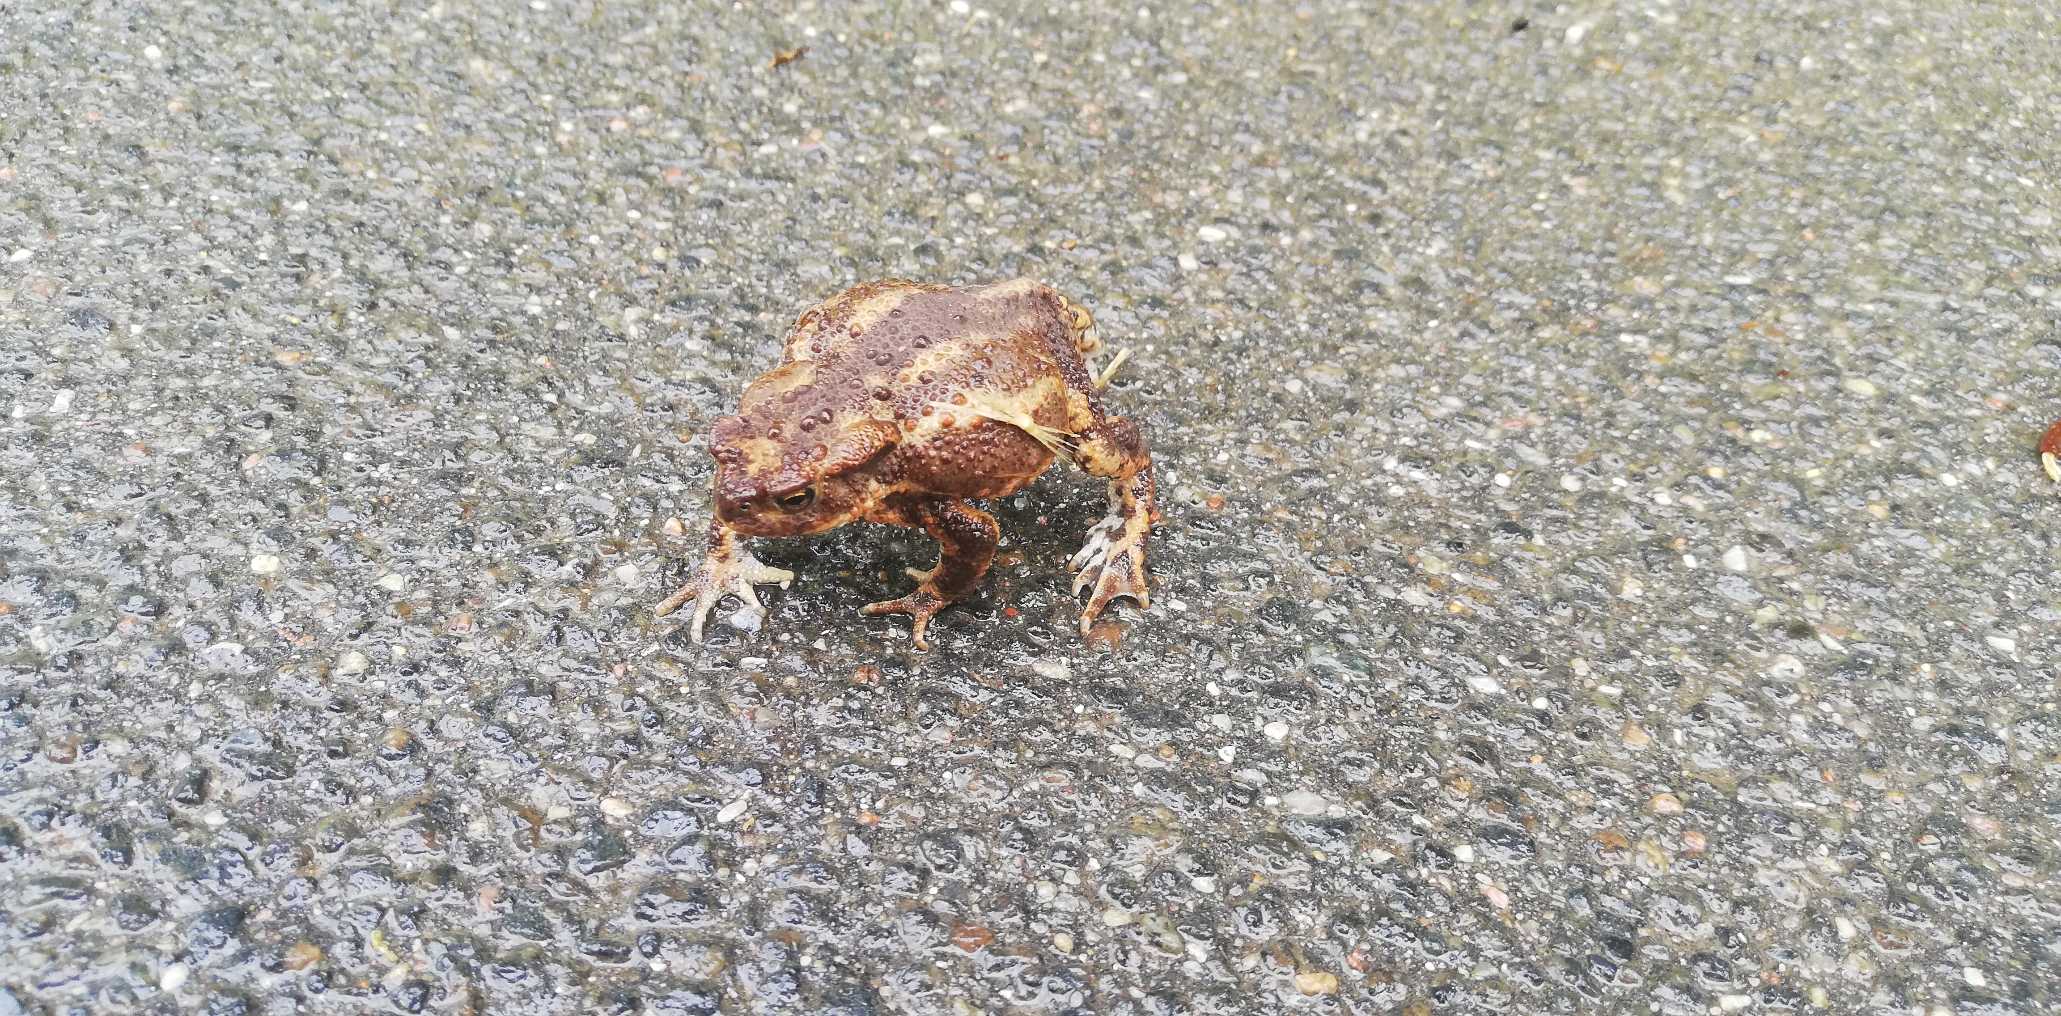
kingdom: Animalia
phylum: Chordata
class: Amphibia
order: Anura
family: Bufonidae
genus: Bufo
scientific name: Bufo bufo
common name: Skrubtudse
